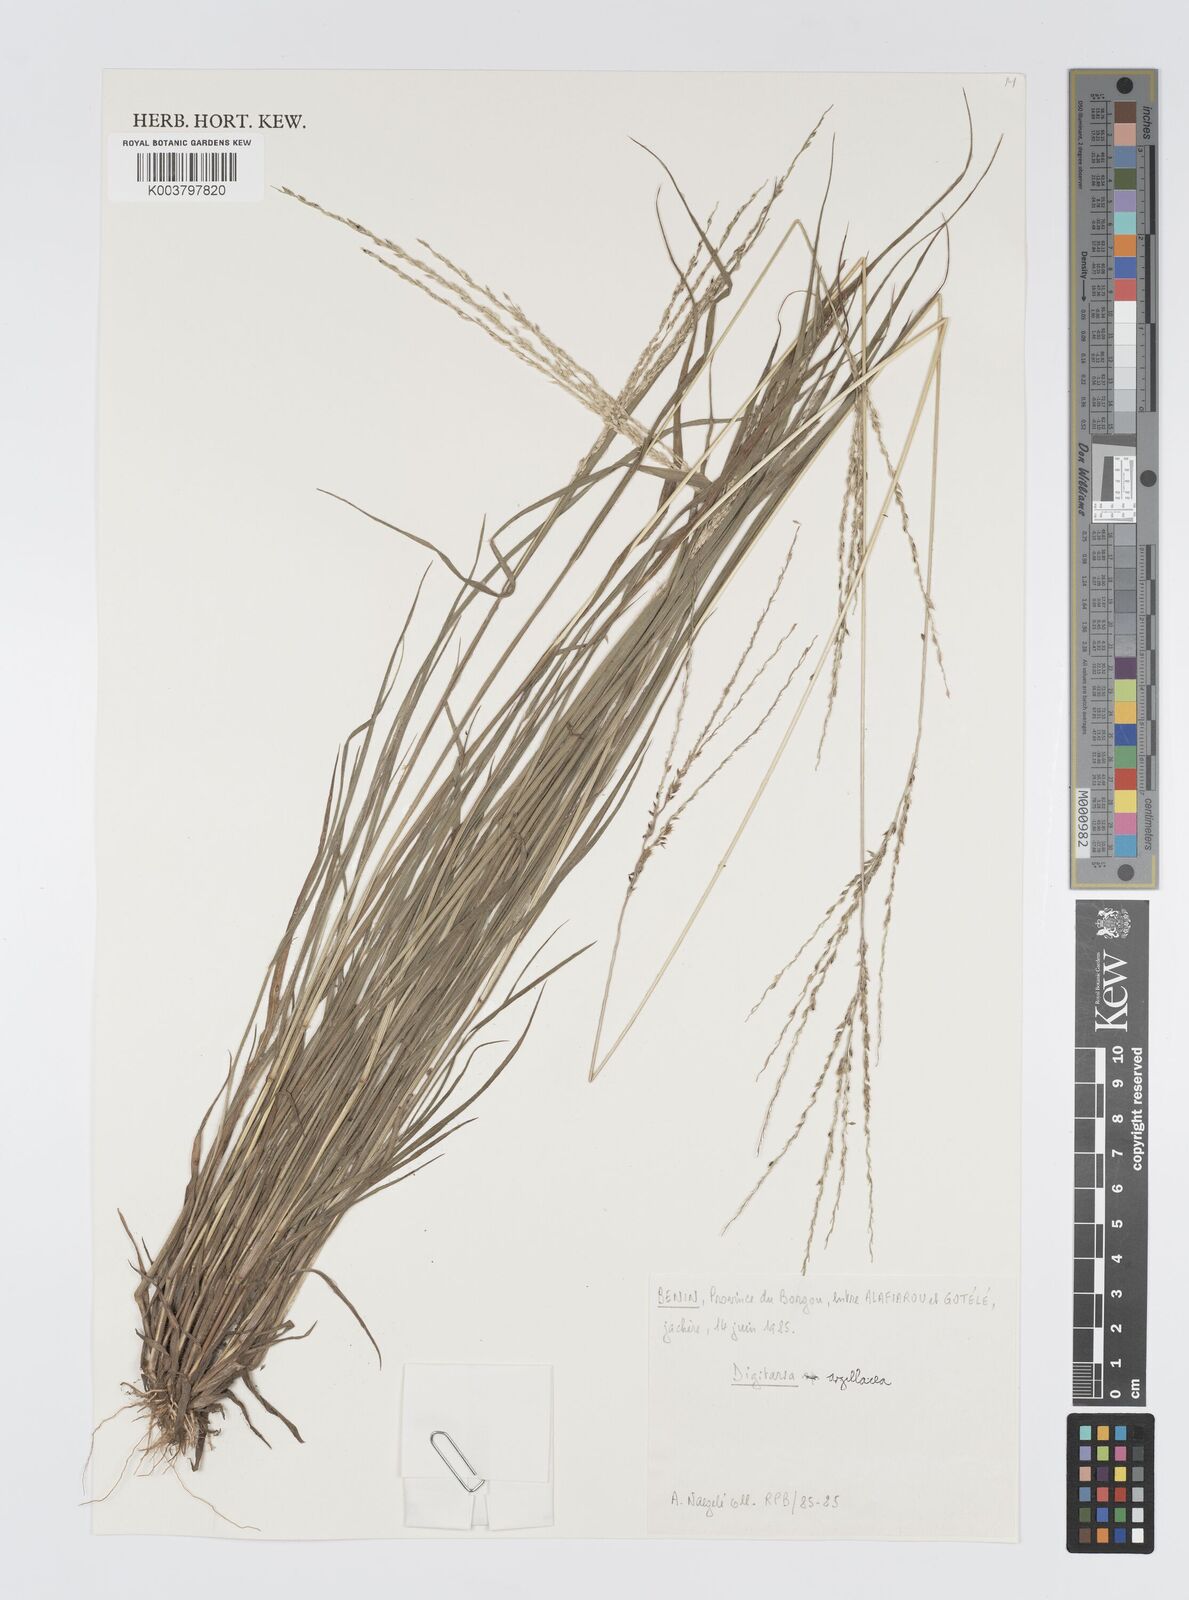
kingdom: Plantae
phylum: Tracheophyta
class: Liliopsida
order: Poales
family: Poaceae
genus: Digitaria
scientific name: Digitaria
